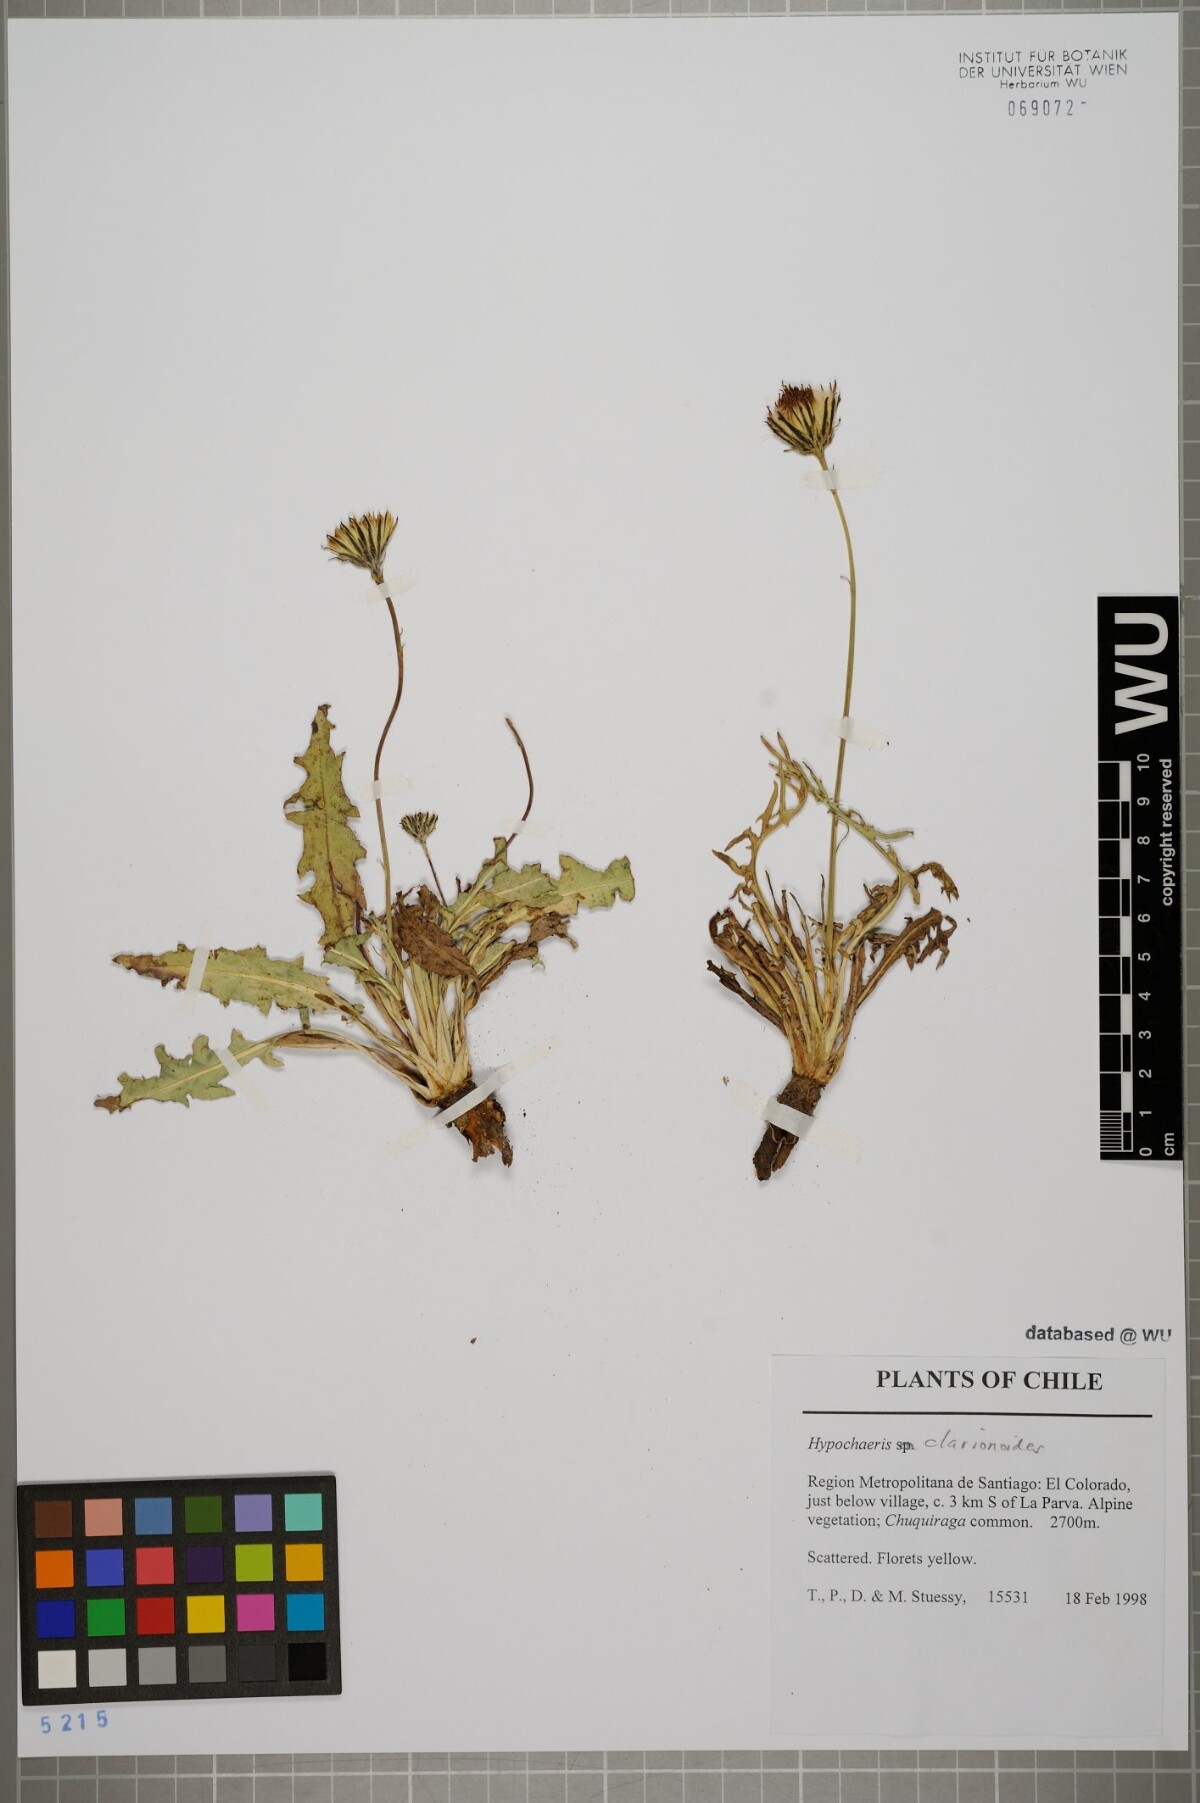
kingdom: Plantae
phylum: Tracheophyta
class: Magnoliopsida
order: Asterales
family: Asteraceae
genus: Hypochaeris
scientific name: Hypochaeris clarionoides
